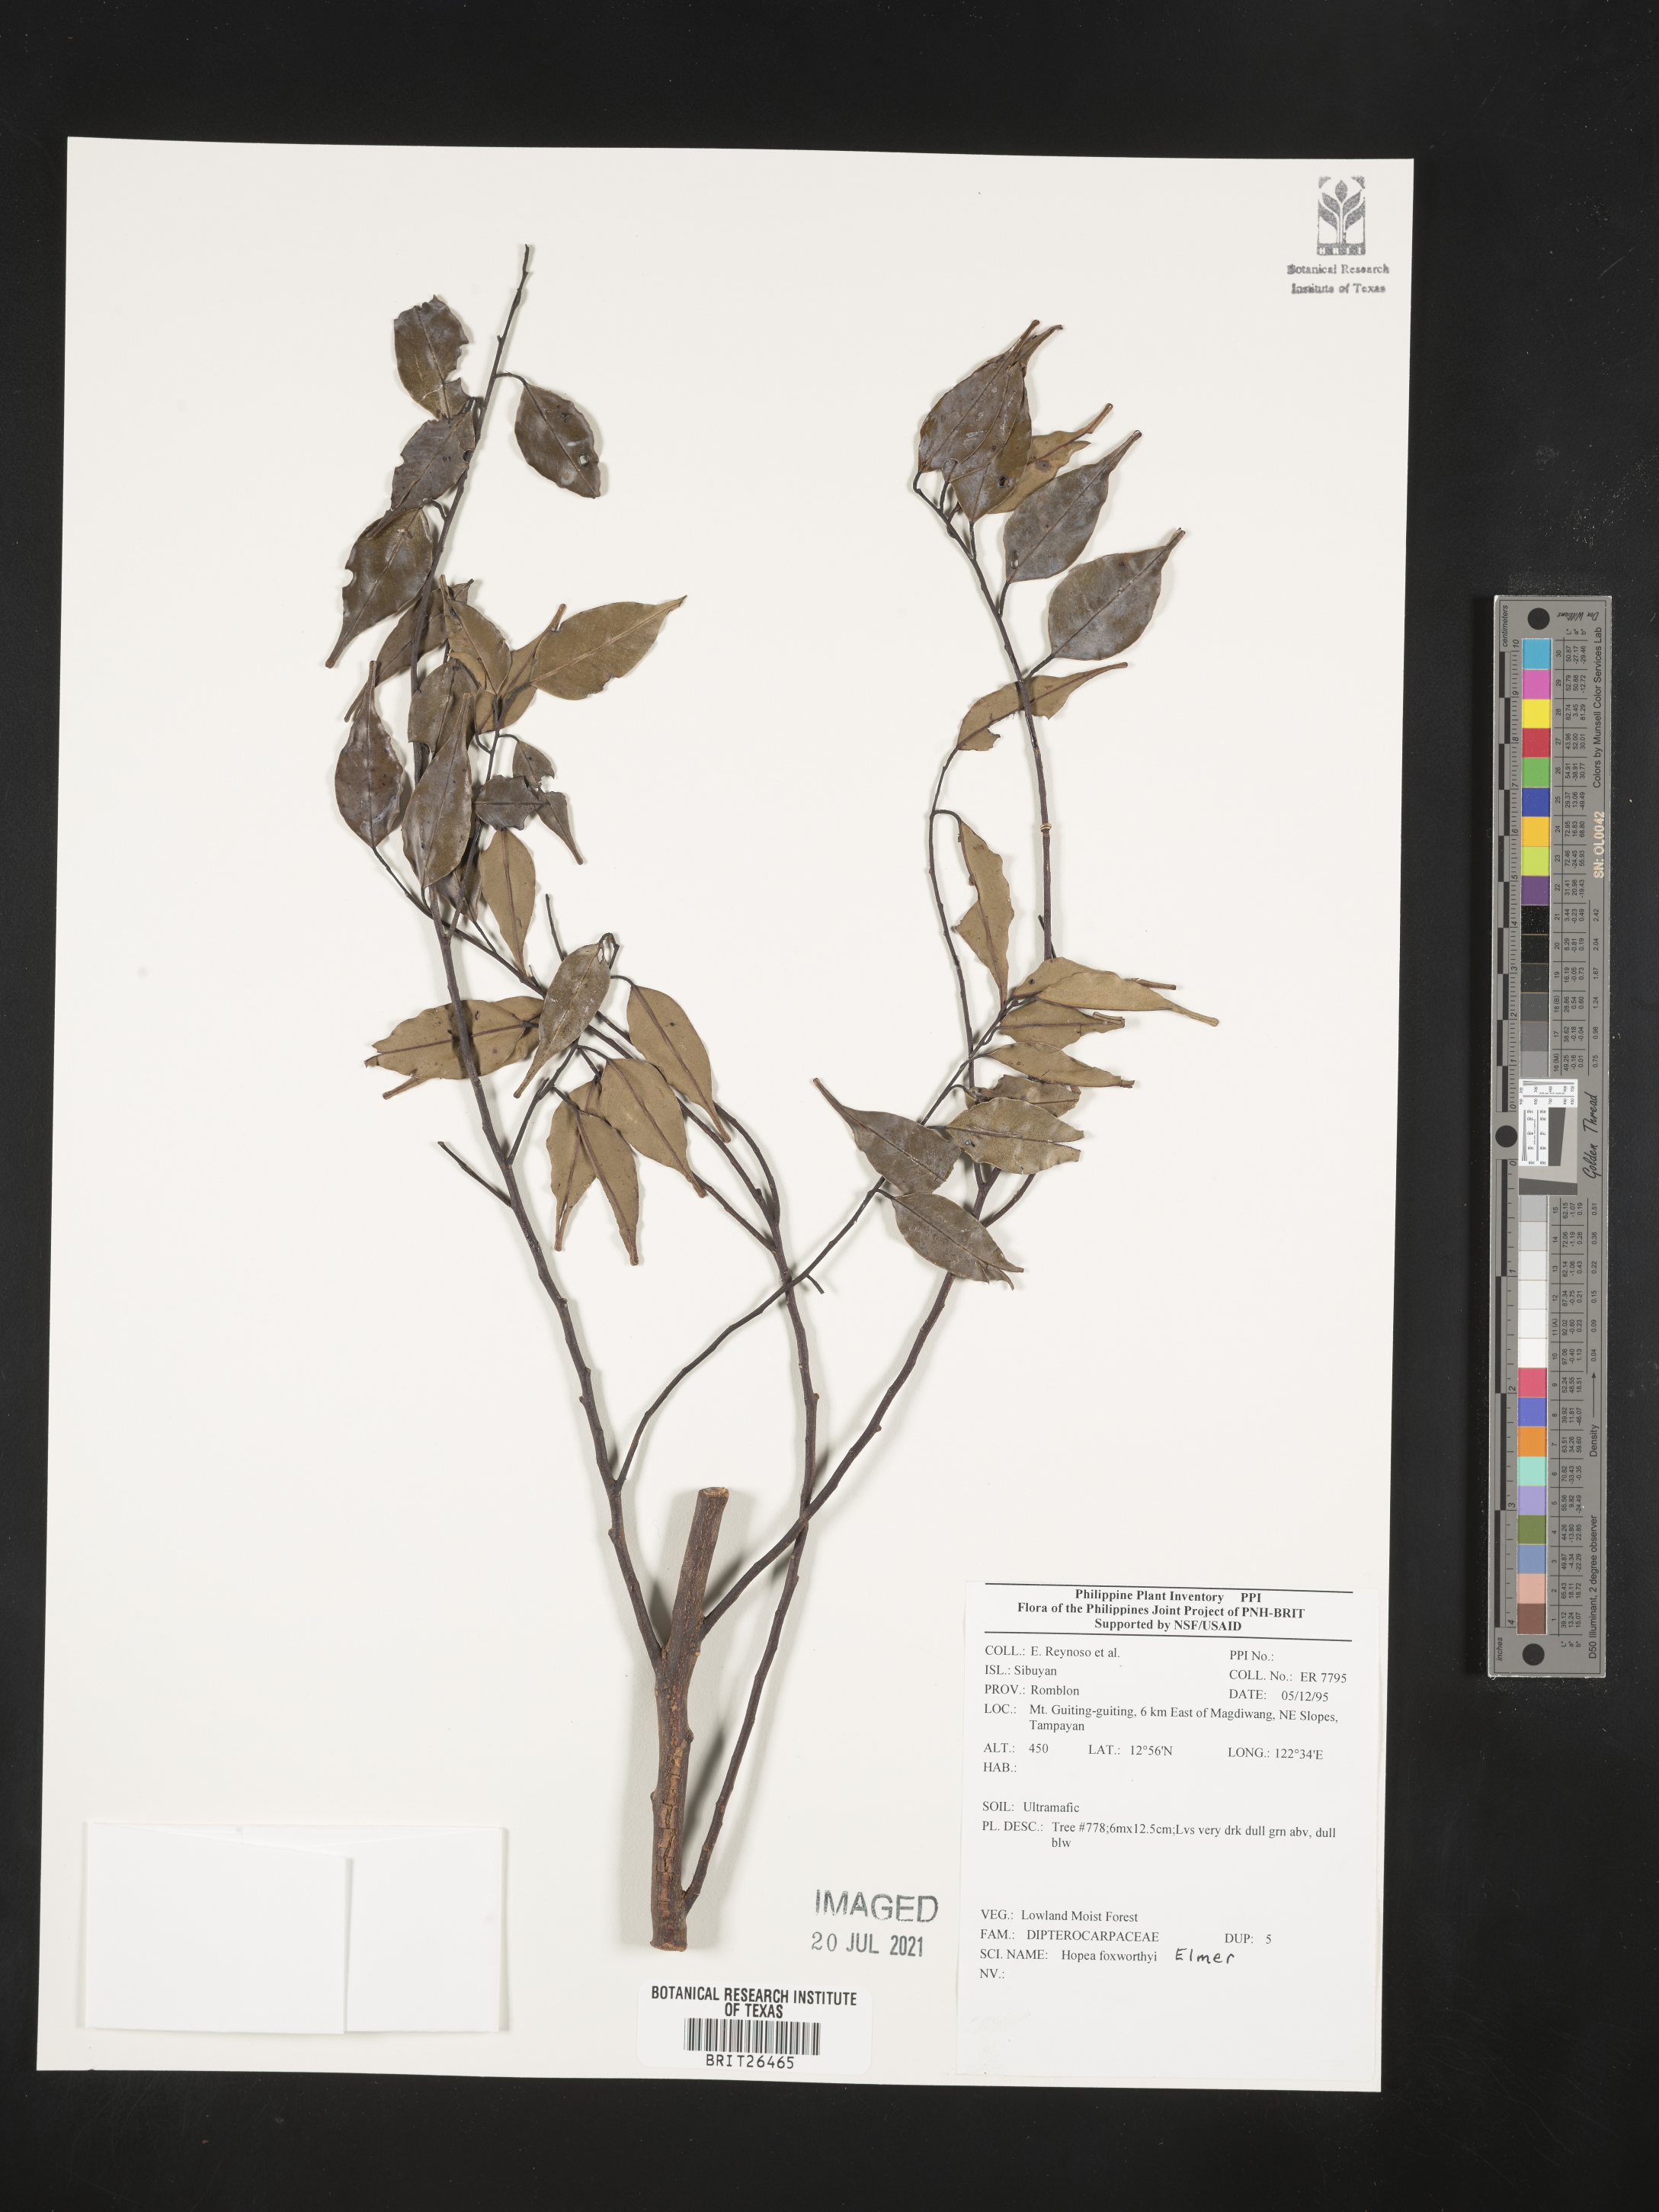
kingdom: Plantae
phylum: Tracheophyta
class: Magnoliopsida
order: Malvales
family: Dipterocarpaceae
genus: Hopea
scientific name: Hopea foxworthyi
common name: Dalingdingan
